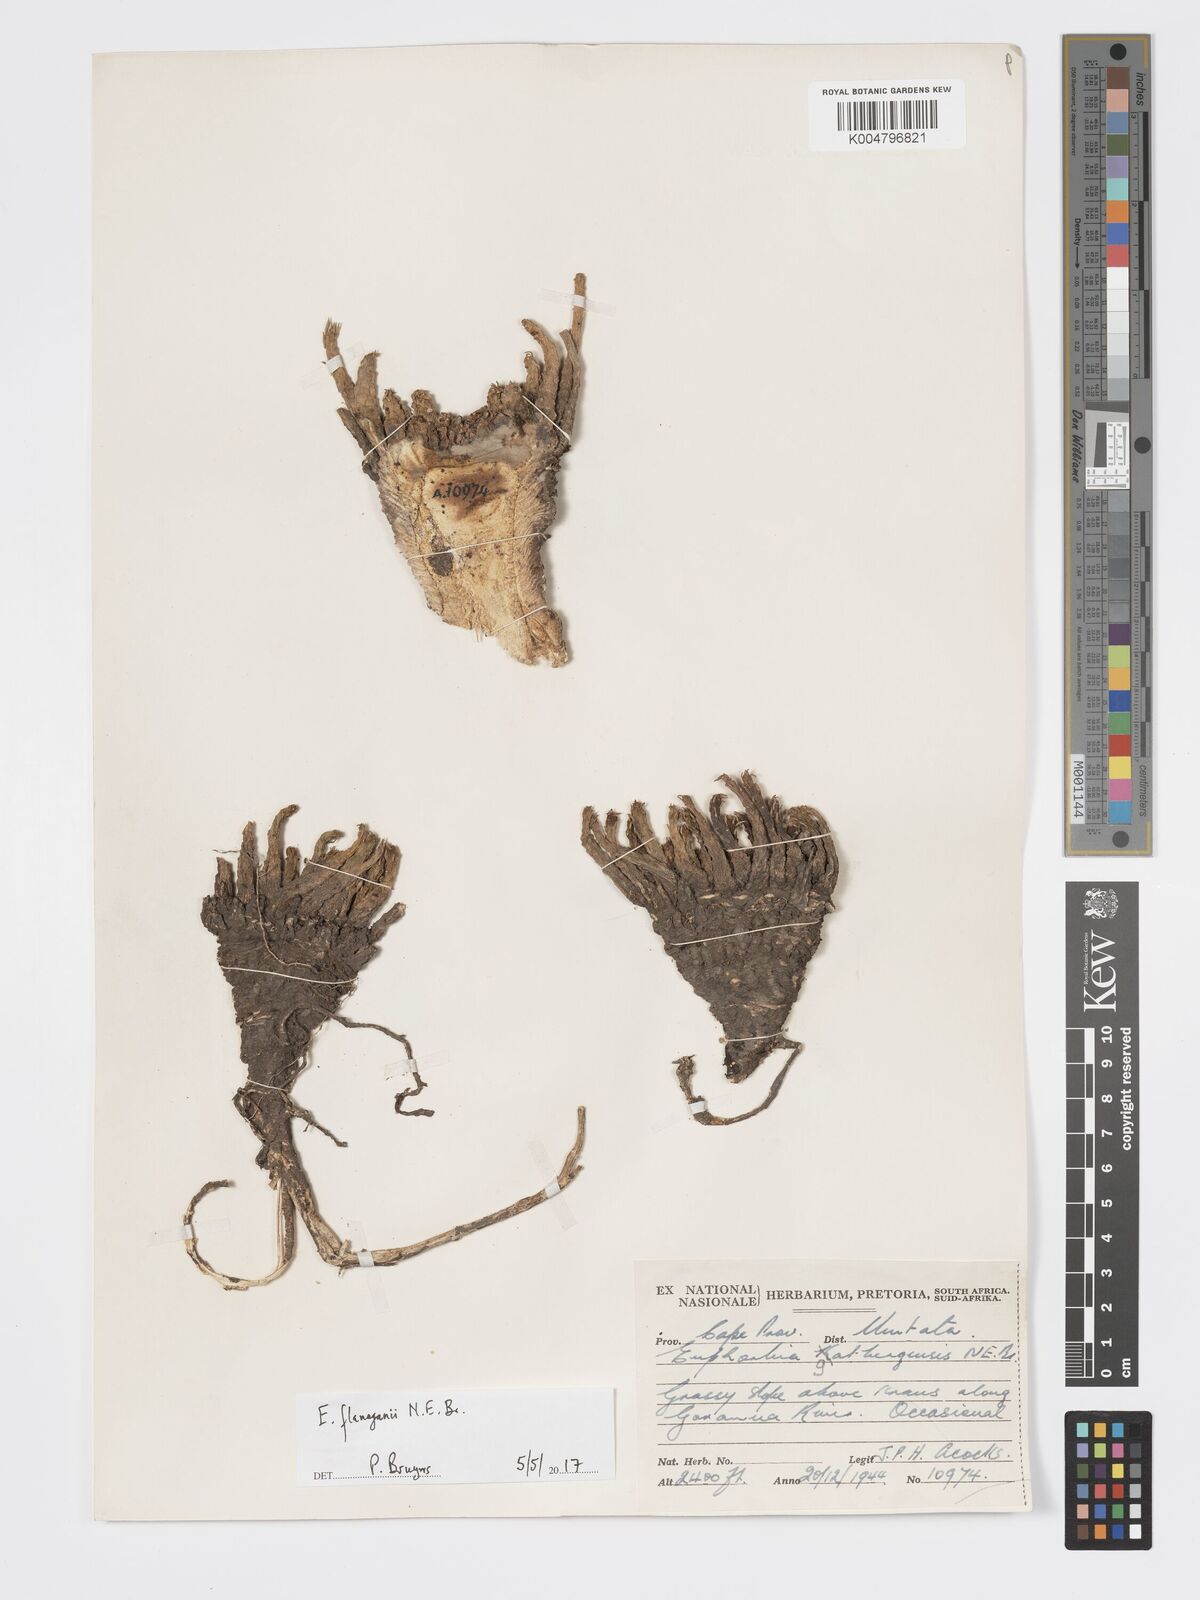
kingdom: Plantae
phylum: Tracheophyta
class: Magnoliopsida
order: Malpighiales
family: Euphorbiaceae
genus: Euphorbia
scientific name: Euphorbia flanaganii
